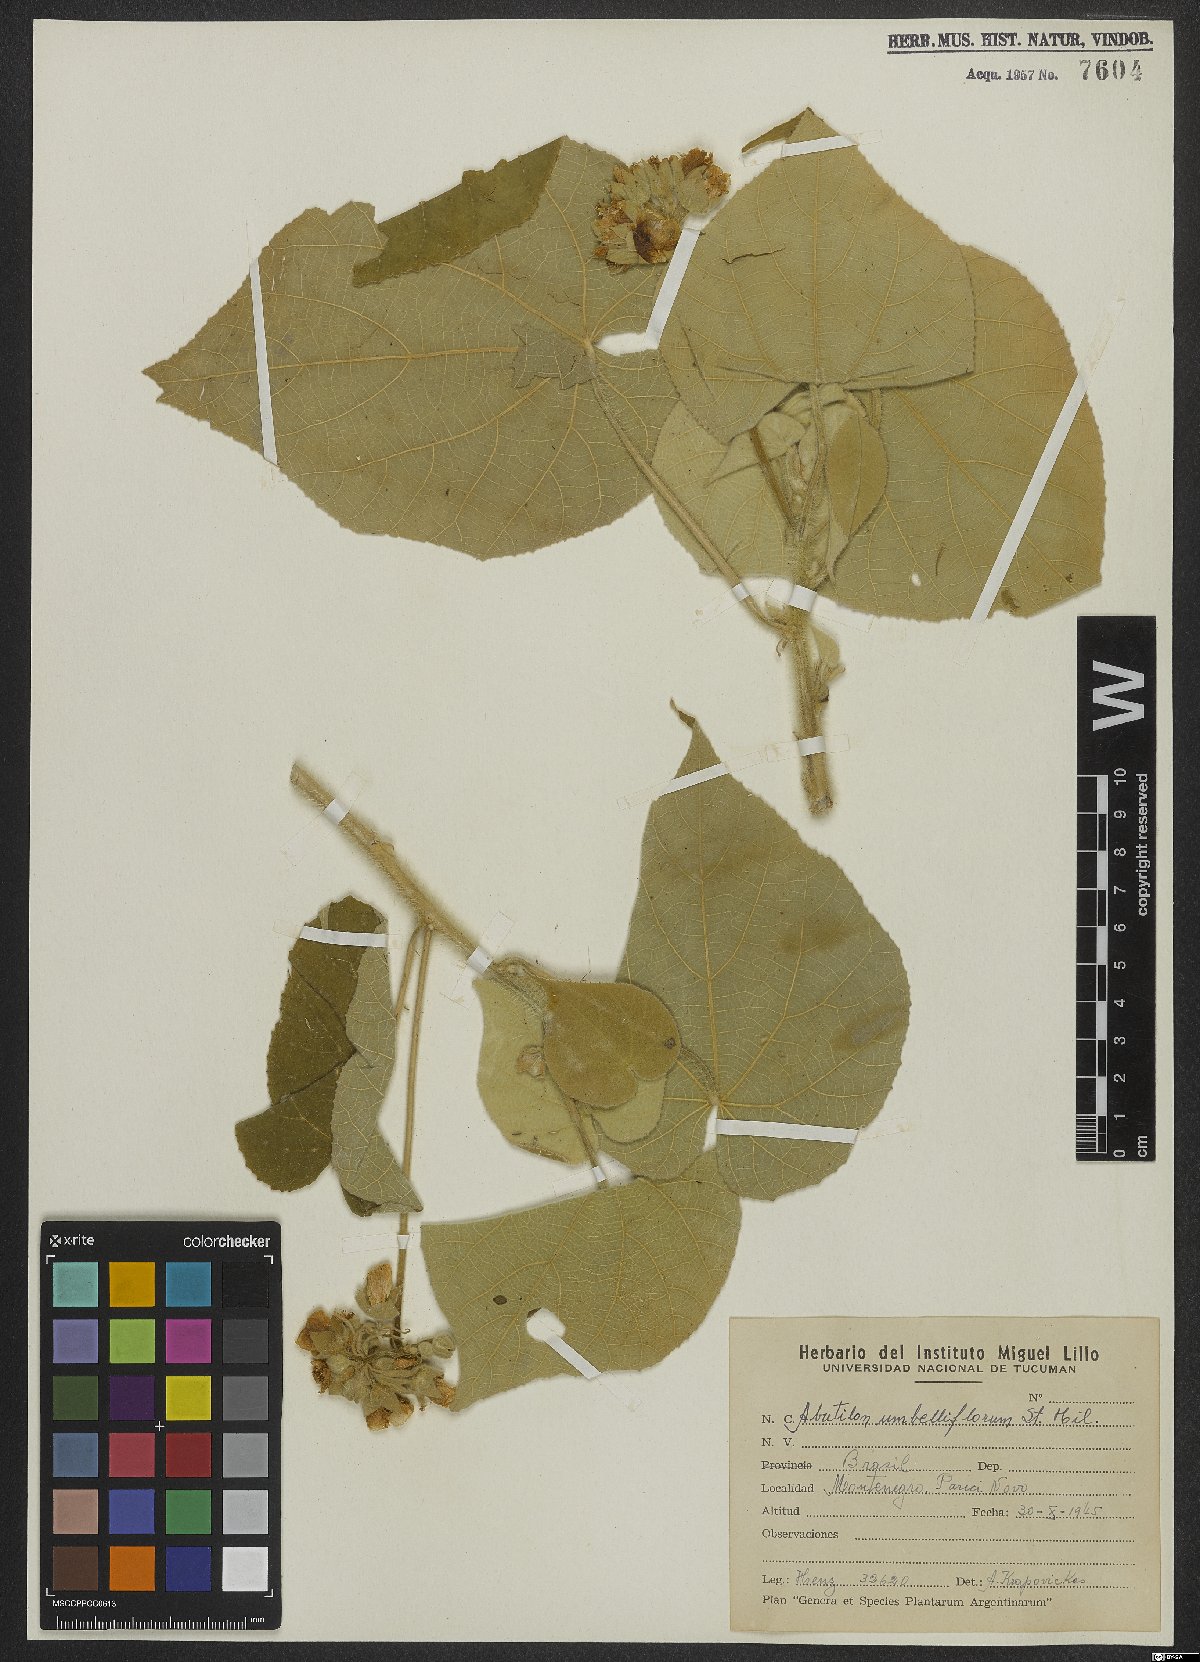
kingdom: Plantae
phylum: Tracheophyta
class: Magnoliopsida
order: Malvales
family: Malvaceae
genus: Abutilon
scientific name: Abutilon umbelliflorum
